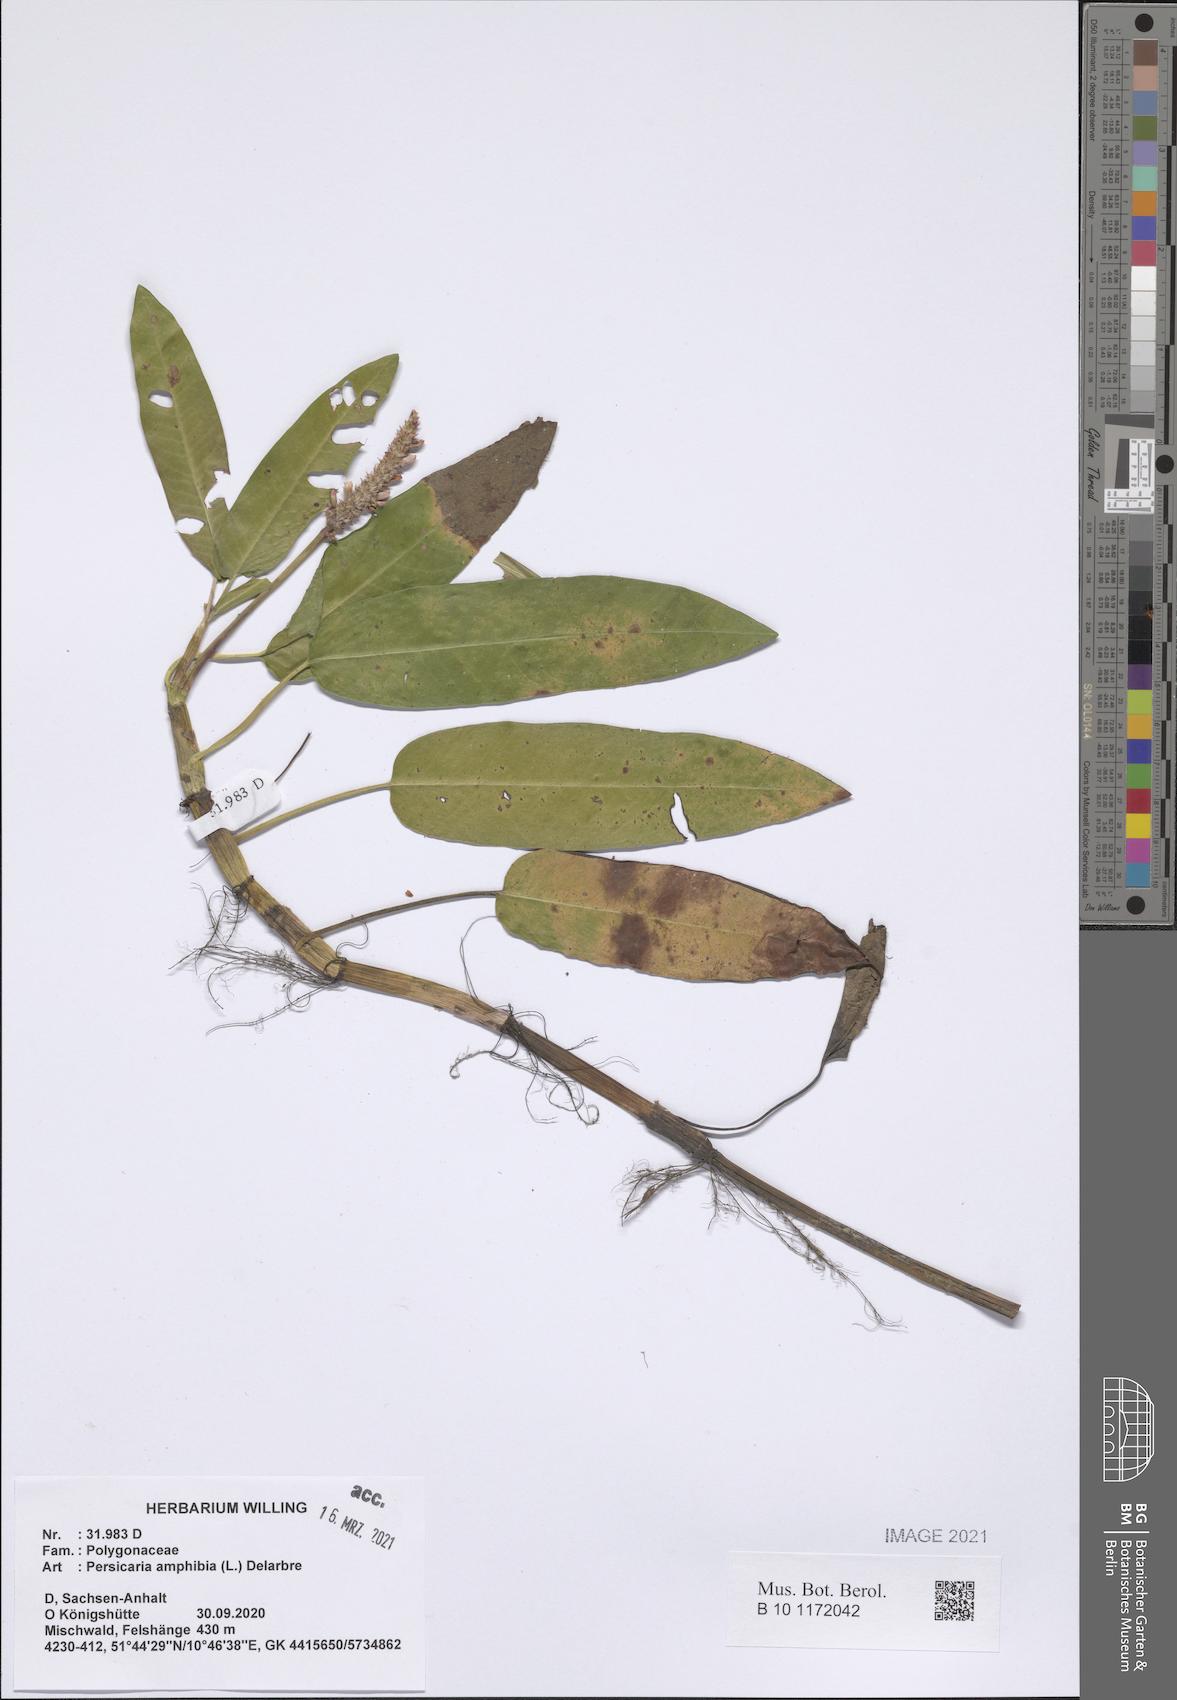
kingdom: Plantae
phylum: Tracheophyta
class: Magnoliopsida
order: Caryophyllales
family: Polygonaceae
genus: Persicaria
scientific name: Persicaria amphibia
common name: Amphibious bistort
